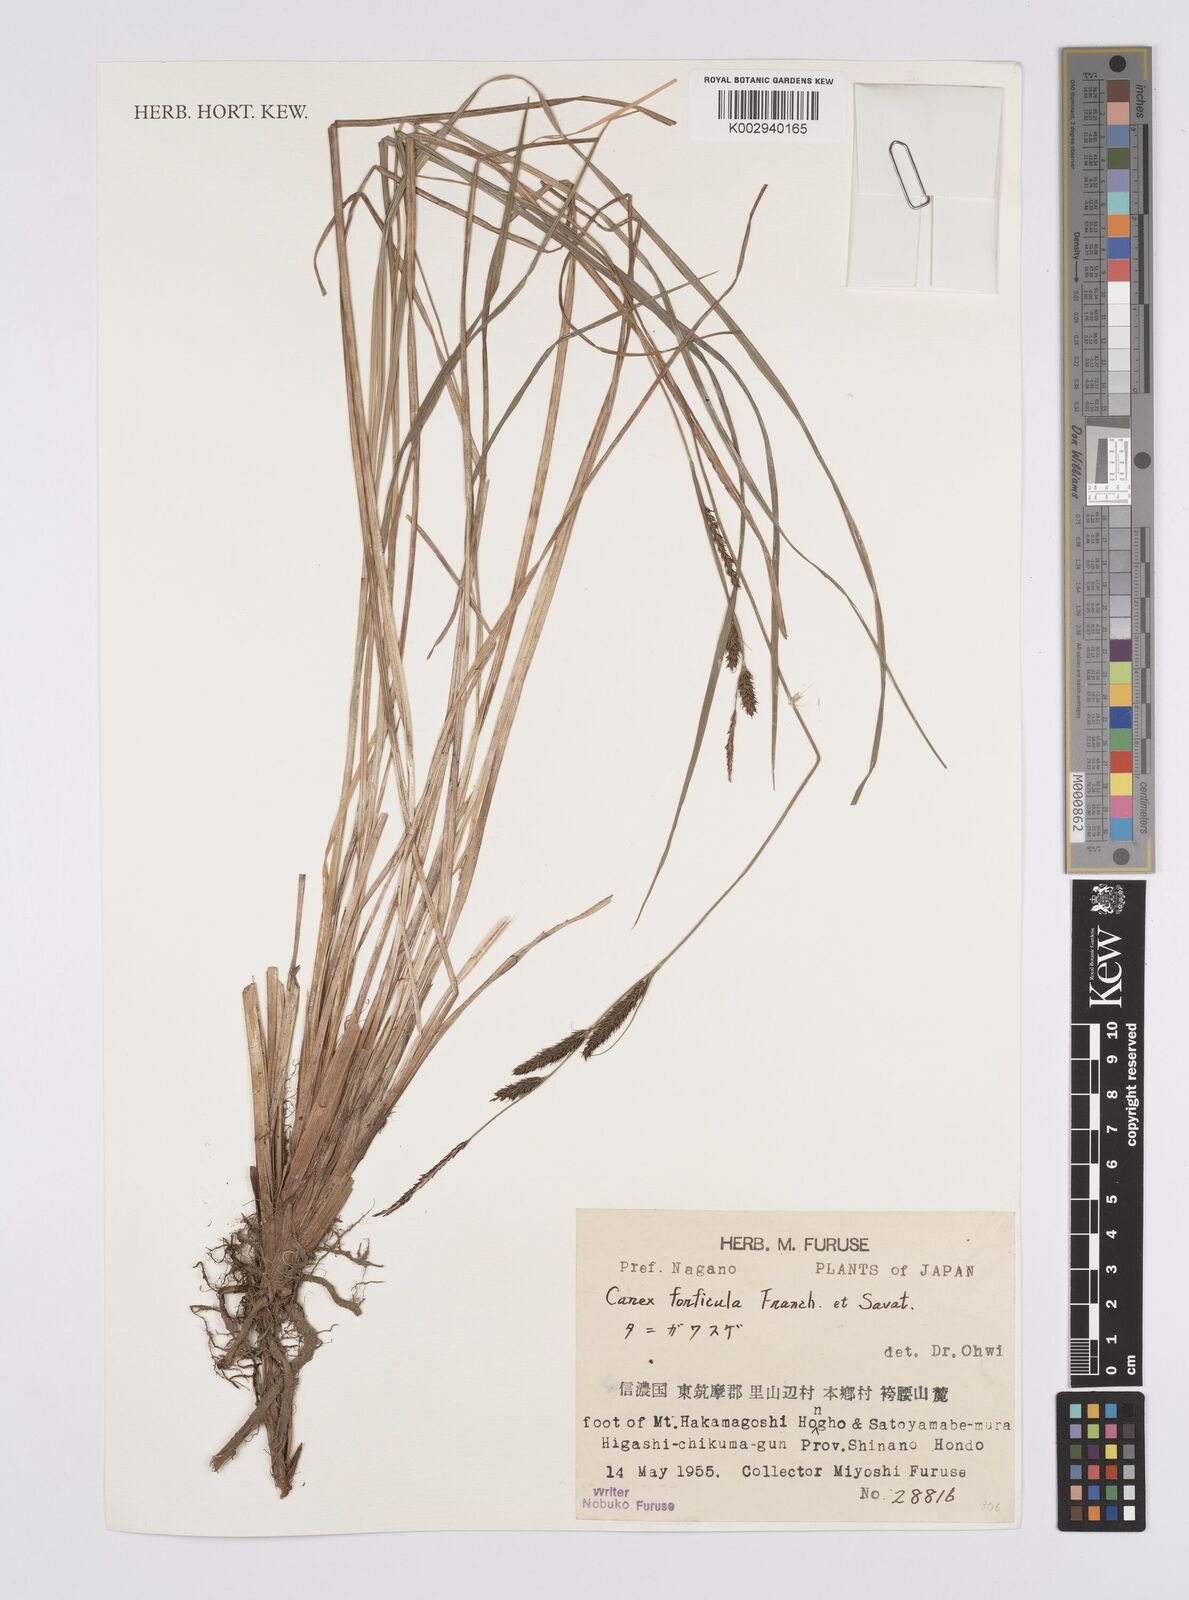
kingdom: Plantae
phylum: Tracheophyta
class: Liliopsida
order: Poales
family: Cyperaceae
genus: Carex
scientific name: Carex forficula
